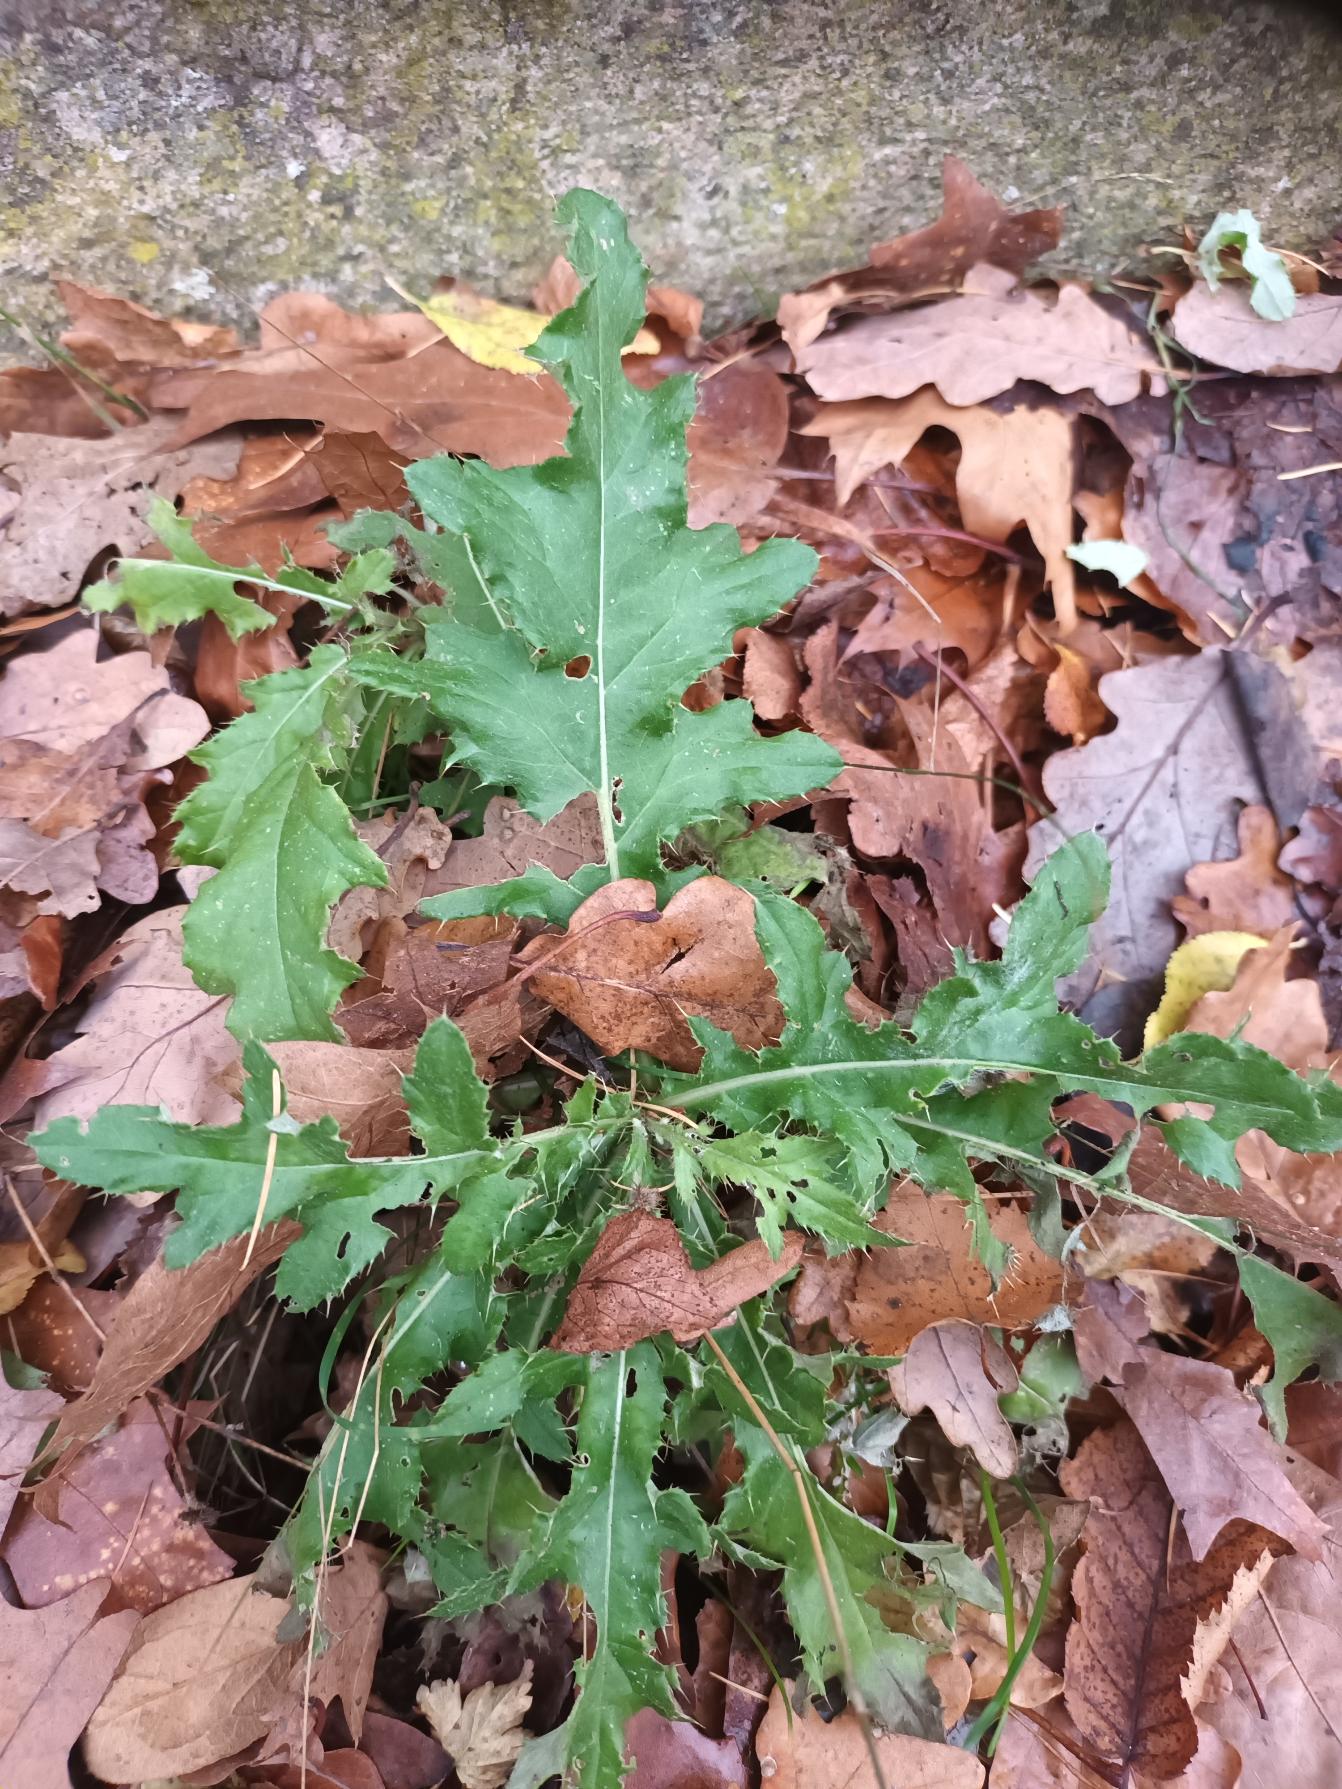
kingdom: Plantae
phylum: Tracheophyta
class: Magnoliopsida
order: Asterales
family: Asteraceae
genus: Cirsium
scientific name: Cirsium arvense
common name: Ager-tidsel
